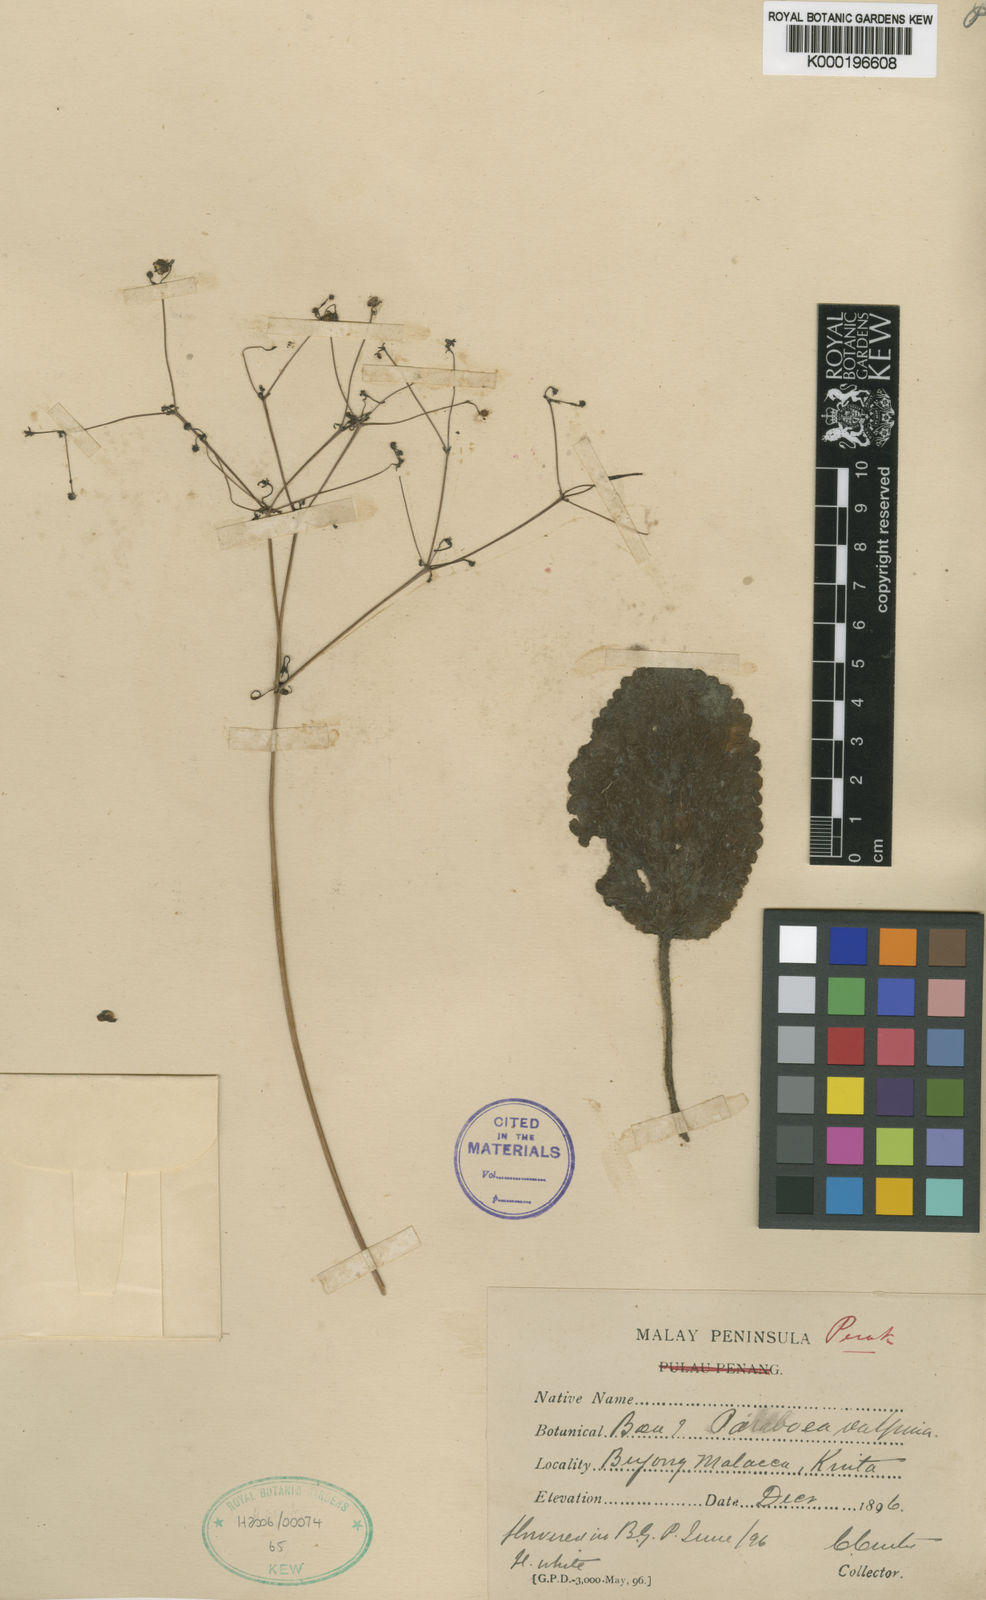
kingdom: Plantae
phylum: Tracheophyta
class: Magnoliopsida
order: Lamiales
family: Gesneriaceae
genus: Paraboea
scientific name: Paraboea vulpina
